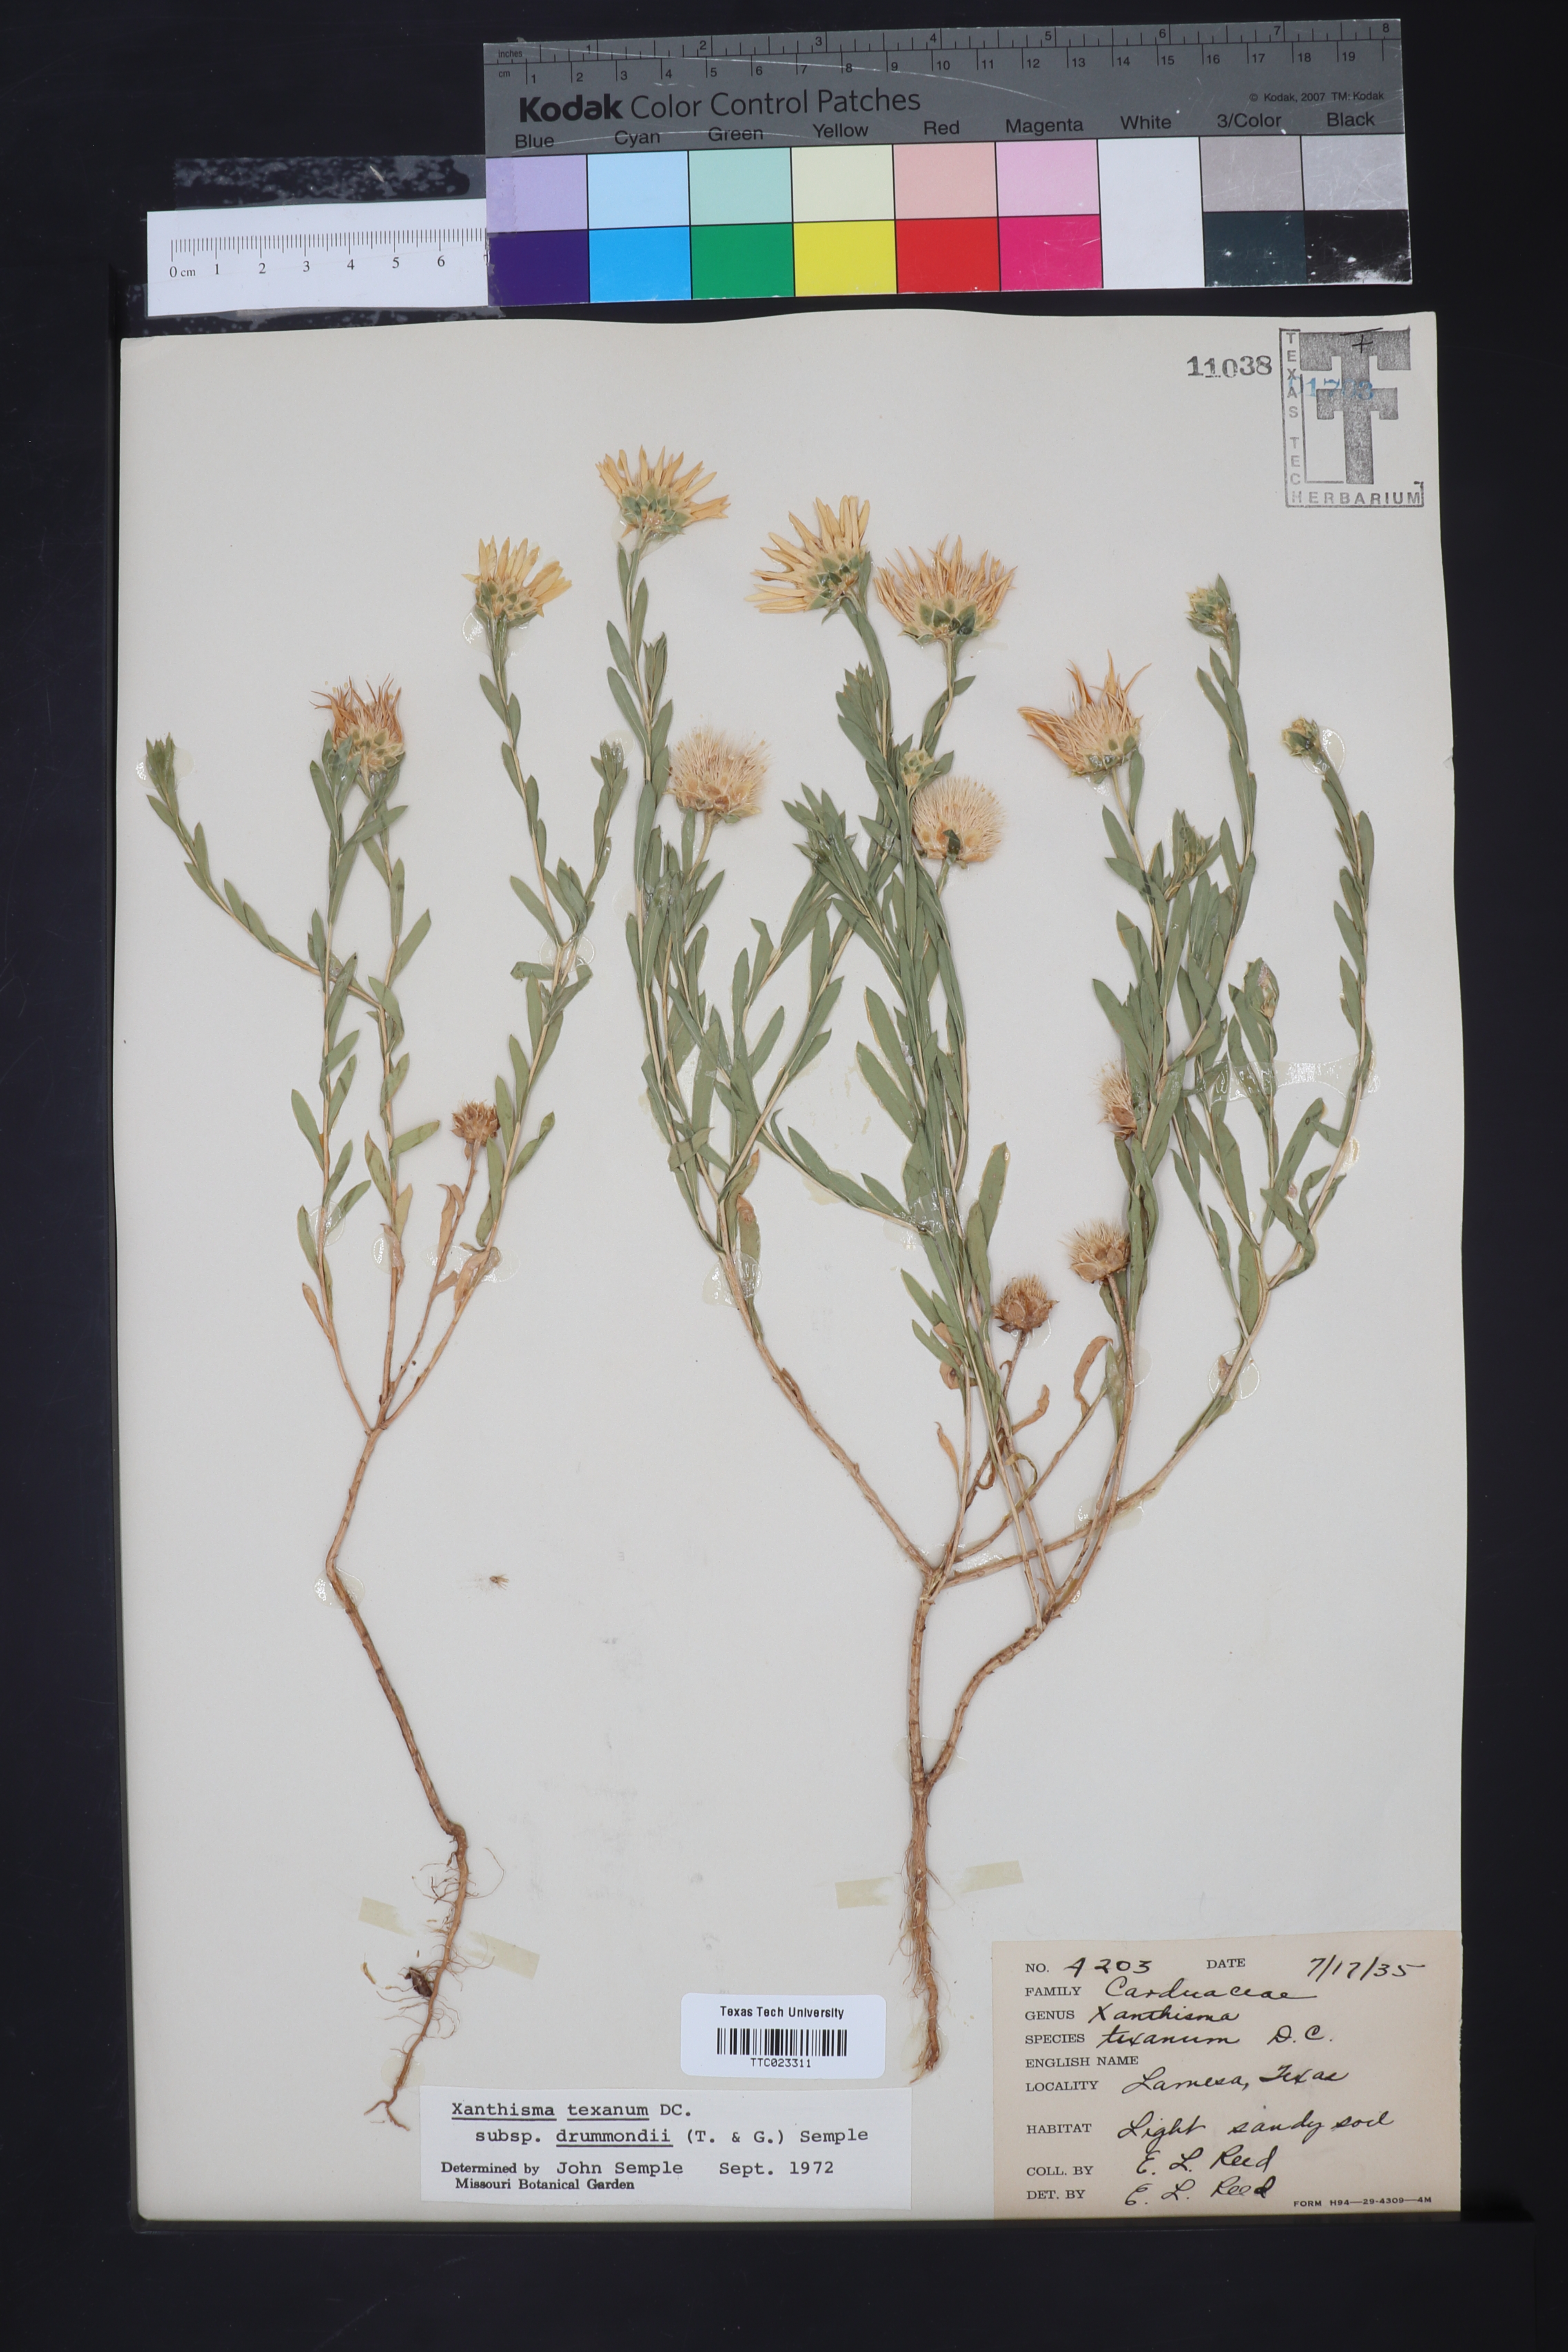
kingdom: Plantae
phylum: Tracheophyta
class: Magnoliopsida
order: Asterales
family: Asteraceae
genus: Xanthisma
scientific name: Xanthisma texanum
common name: Texas sleepy daisy
